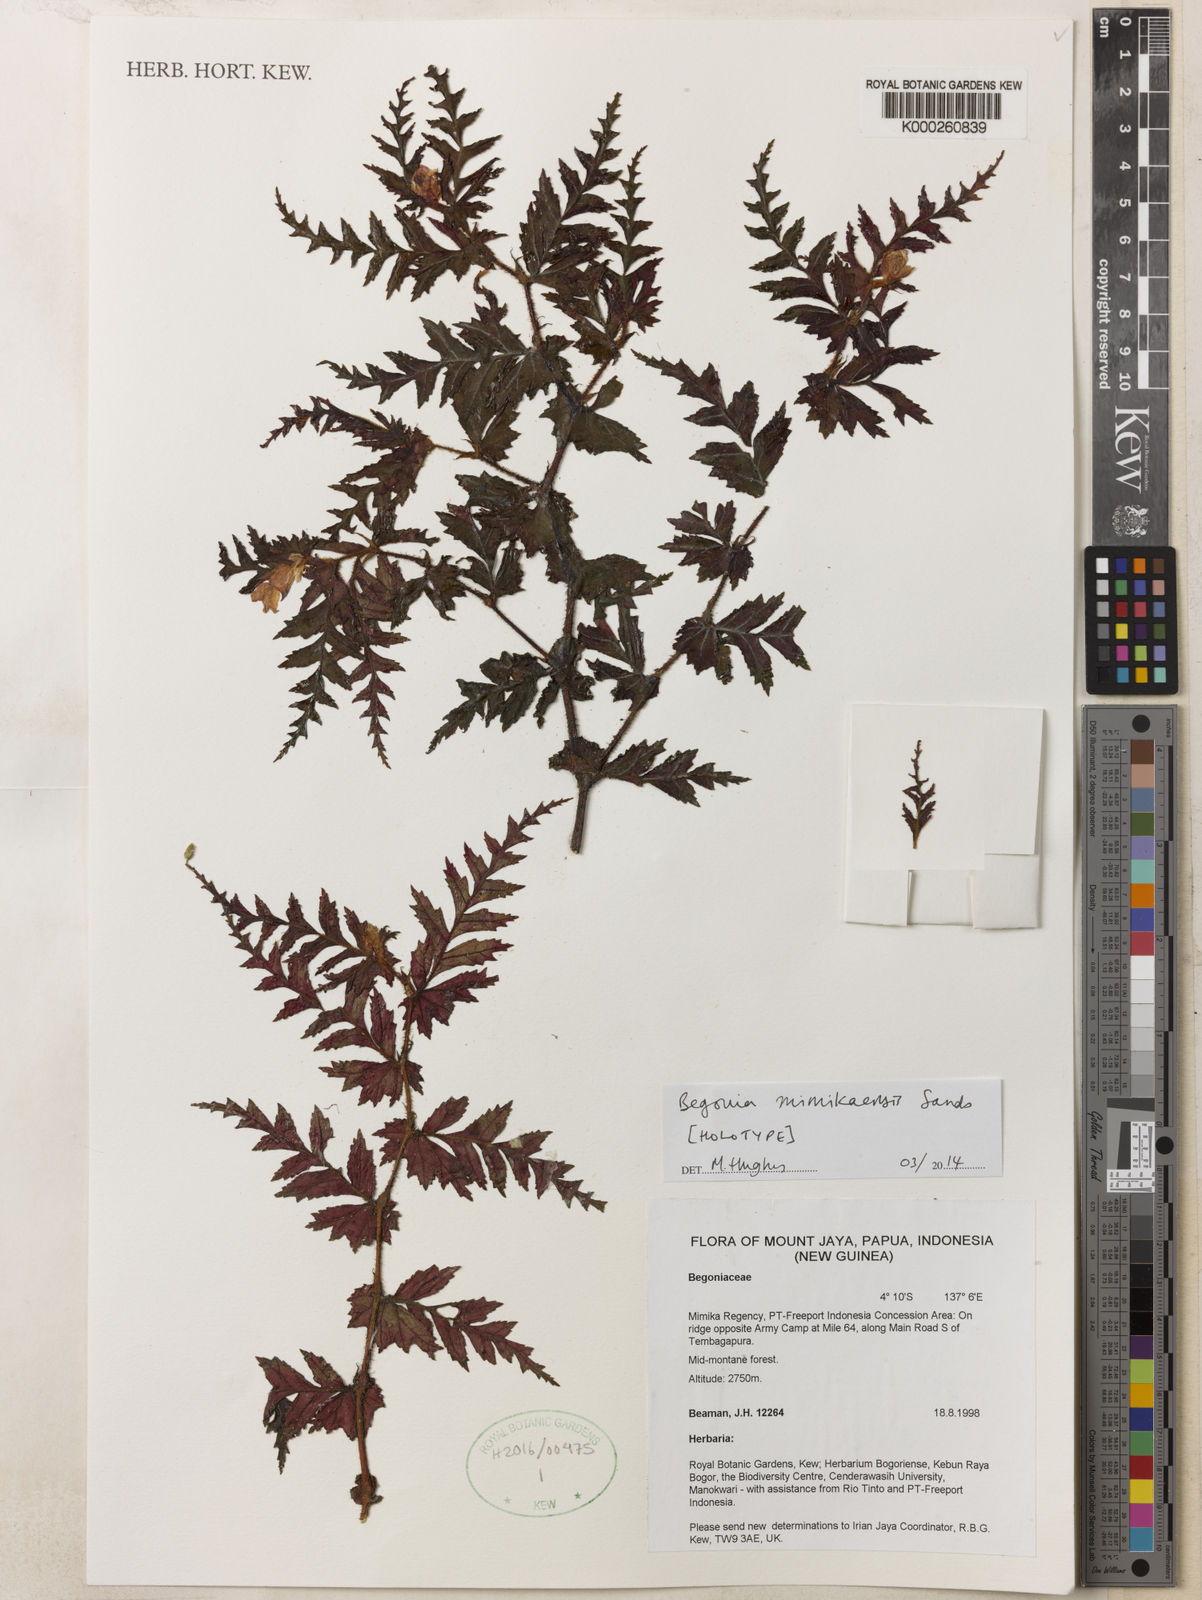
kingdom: Plantae
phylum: Tracheophyta
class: Magnoliopsida
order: Cucurbitales
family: Begoniaceae
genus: Begonia
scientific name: Begonia mimikaensis
